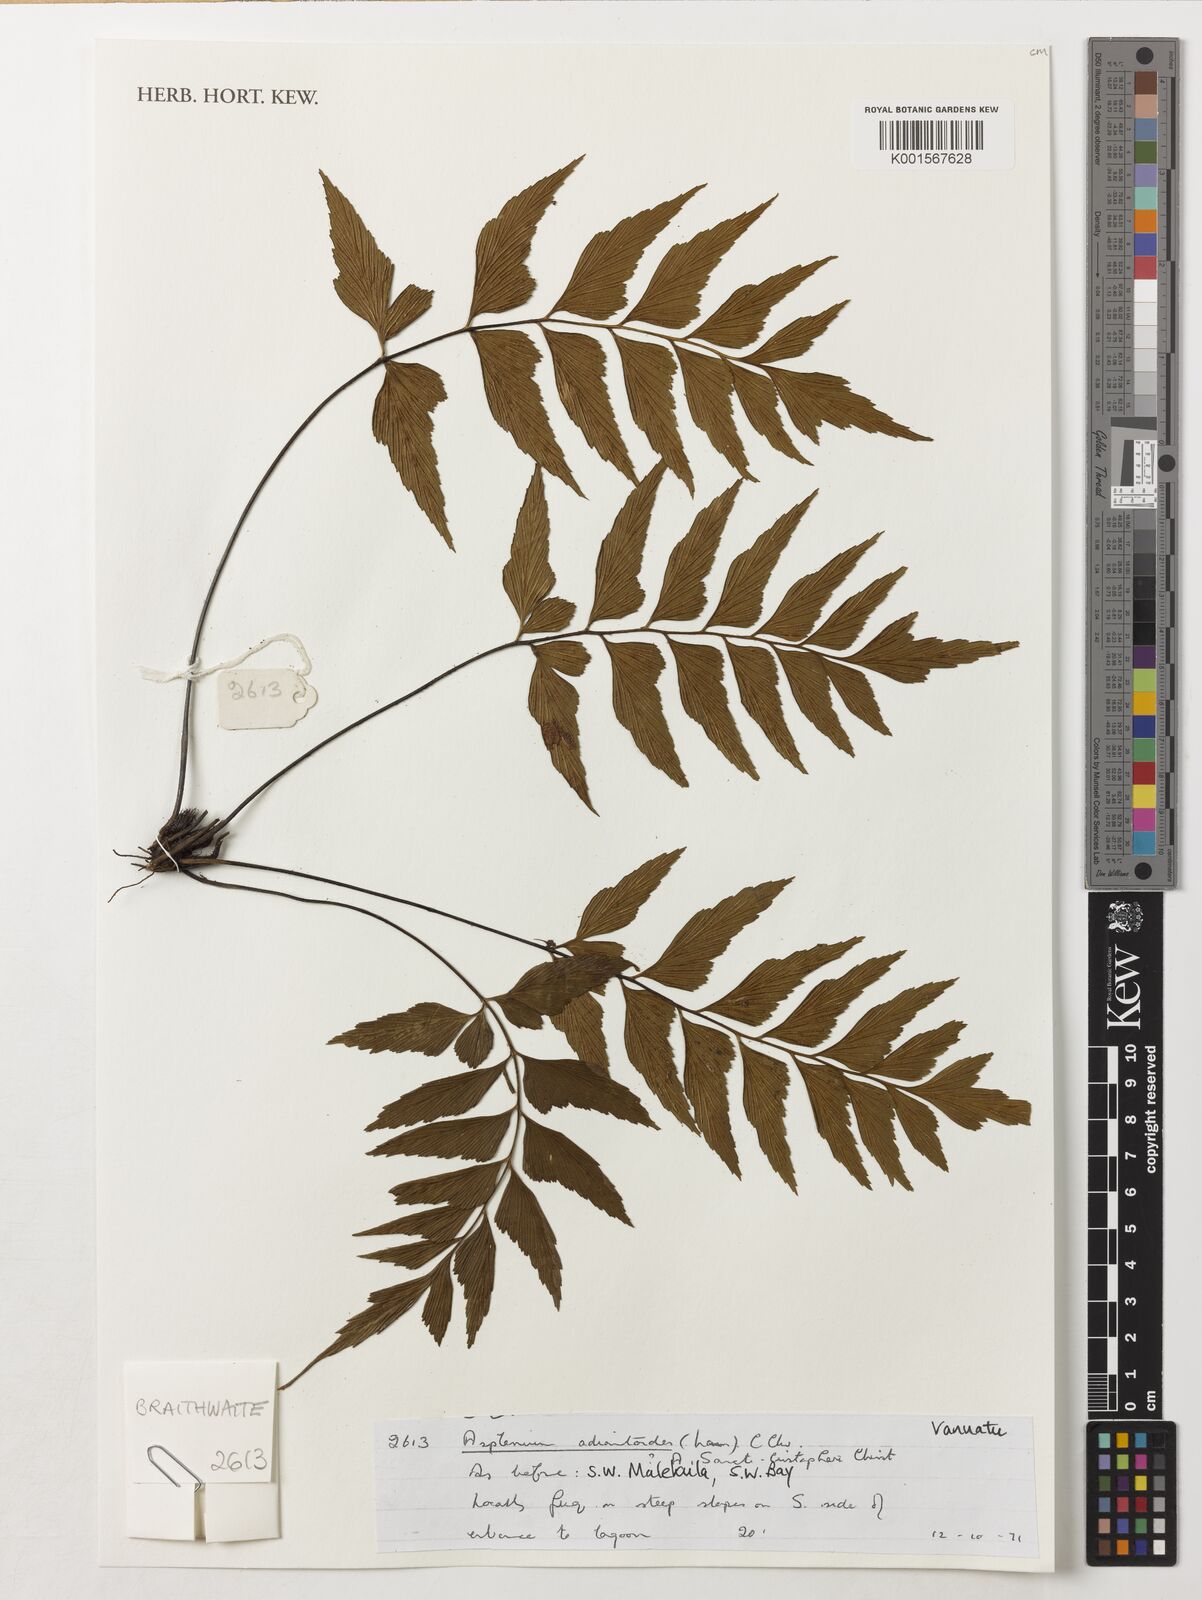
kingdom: Plantae
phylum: Tracheophyta
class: Polypodiopsida
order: Polypodiales
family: Aspleniaceae
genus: Asplenium
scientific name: Asplenium aethiopicum
